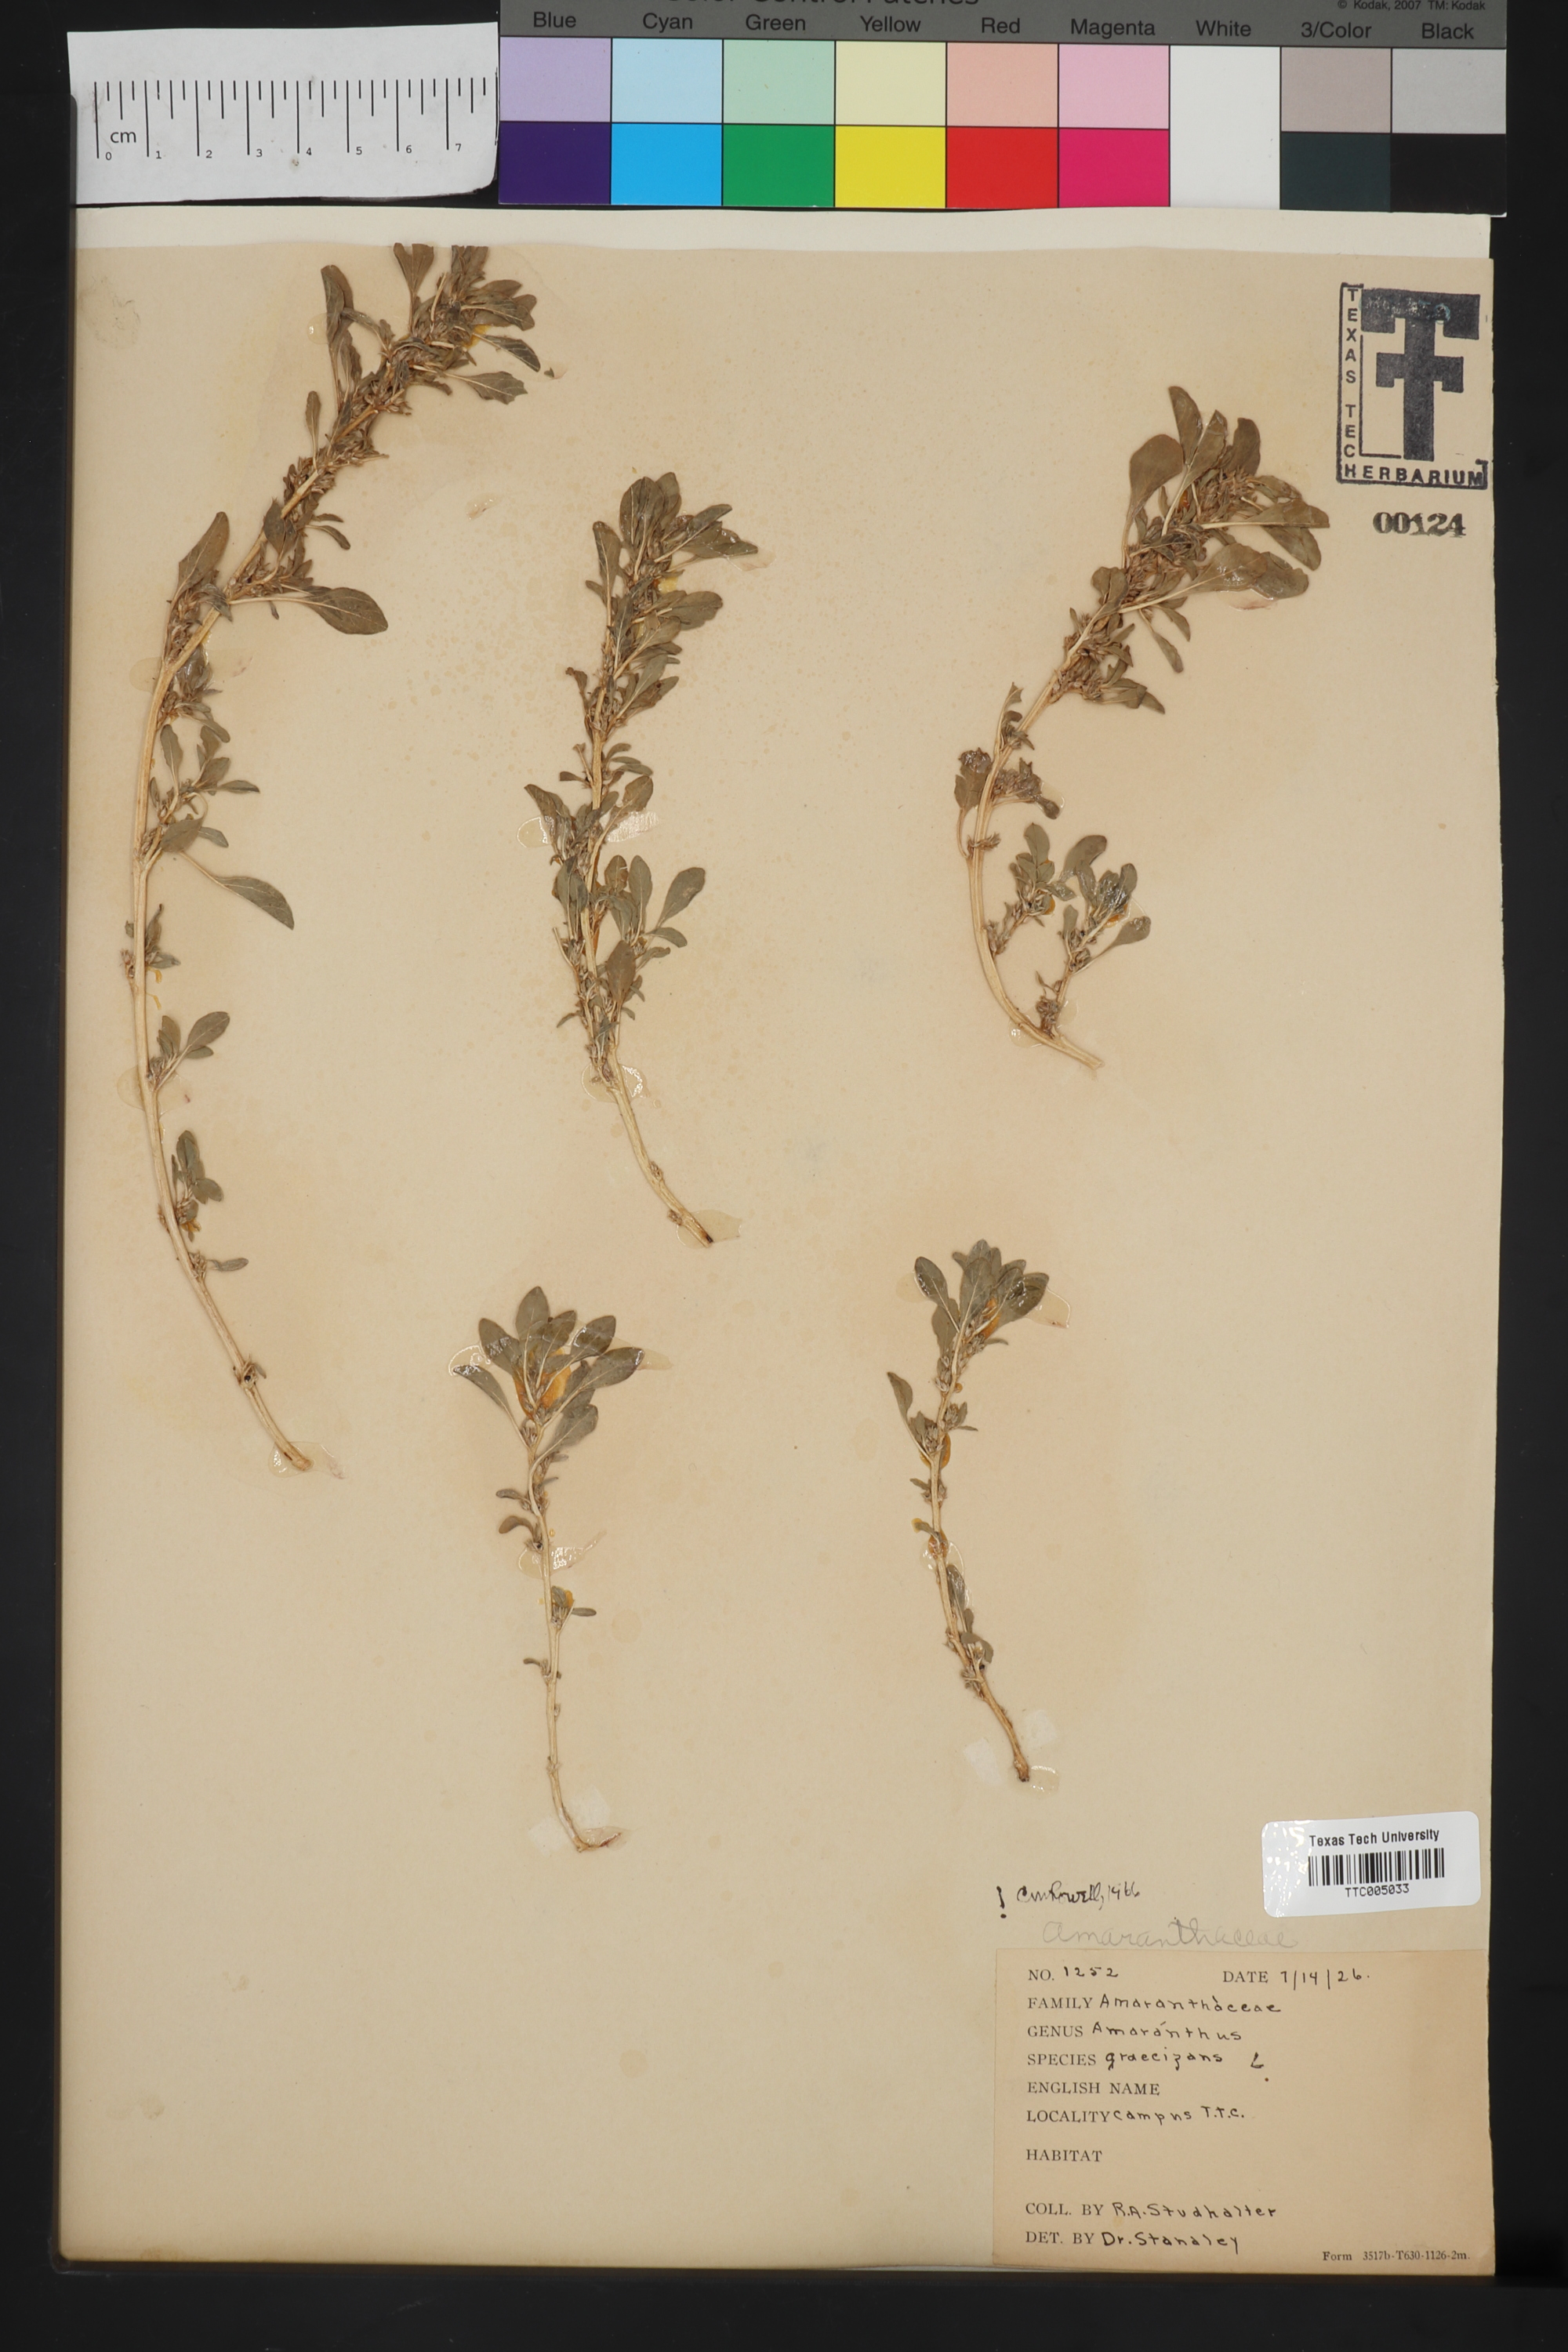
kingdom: Plantae
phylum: Tracheophyta
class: Magnoliopsida
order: Caryophyllales
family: Amaranthaceae
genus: Amaranthus
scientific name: Amaranthus graecizans
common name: Mediterranean amaranth
